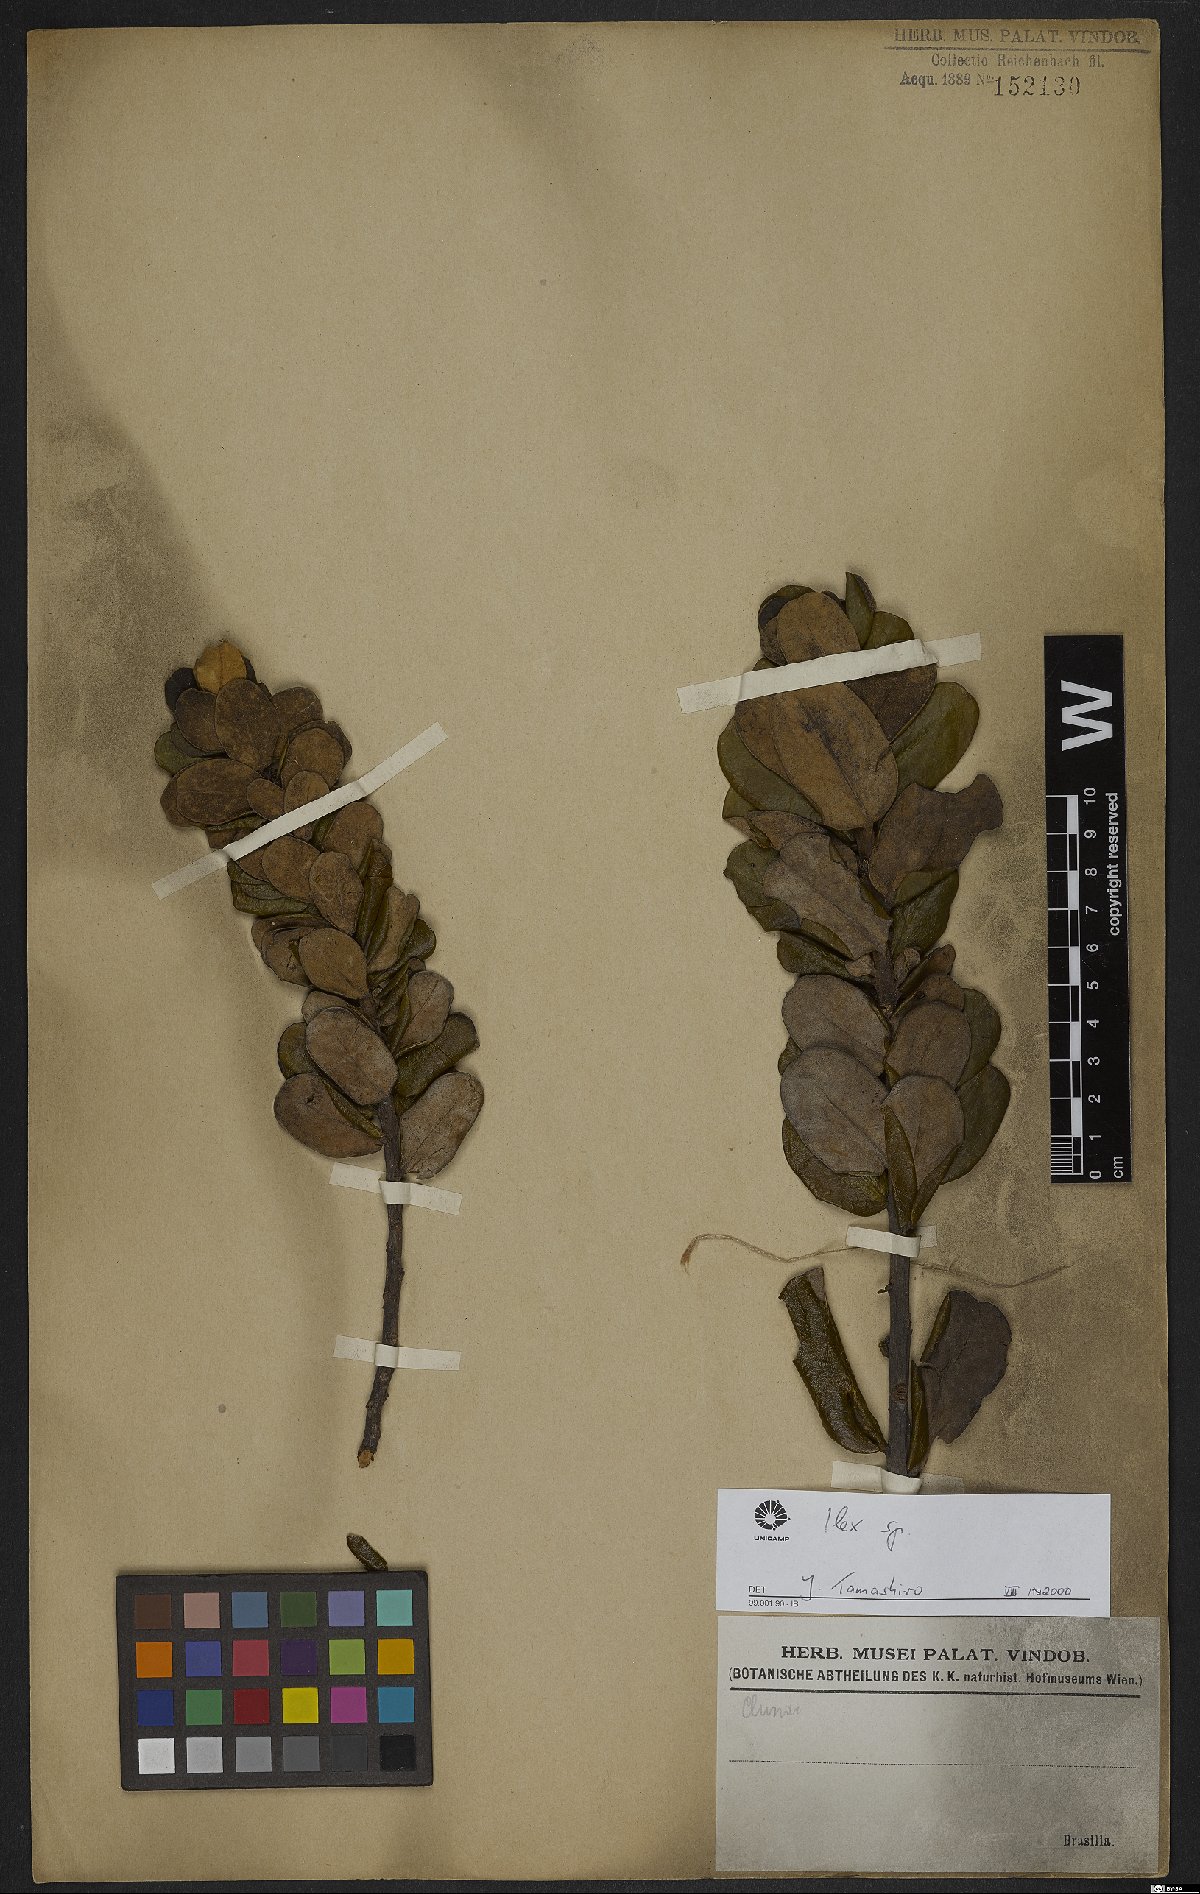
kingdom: Plantae
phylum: Tracheophyta
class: Magnoliopsida
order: Aquifoliales
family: Aquifoliaceae
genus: Ilex
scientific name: Ilex
